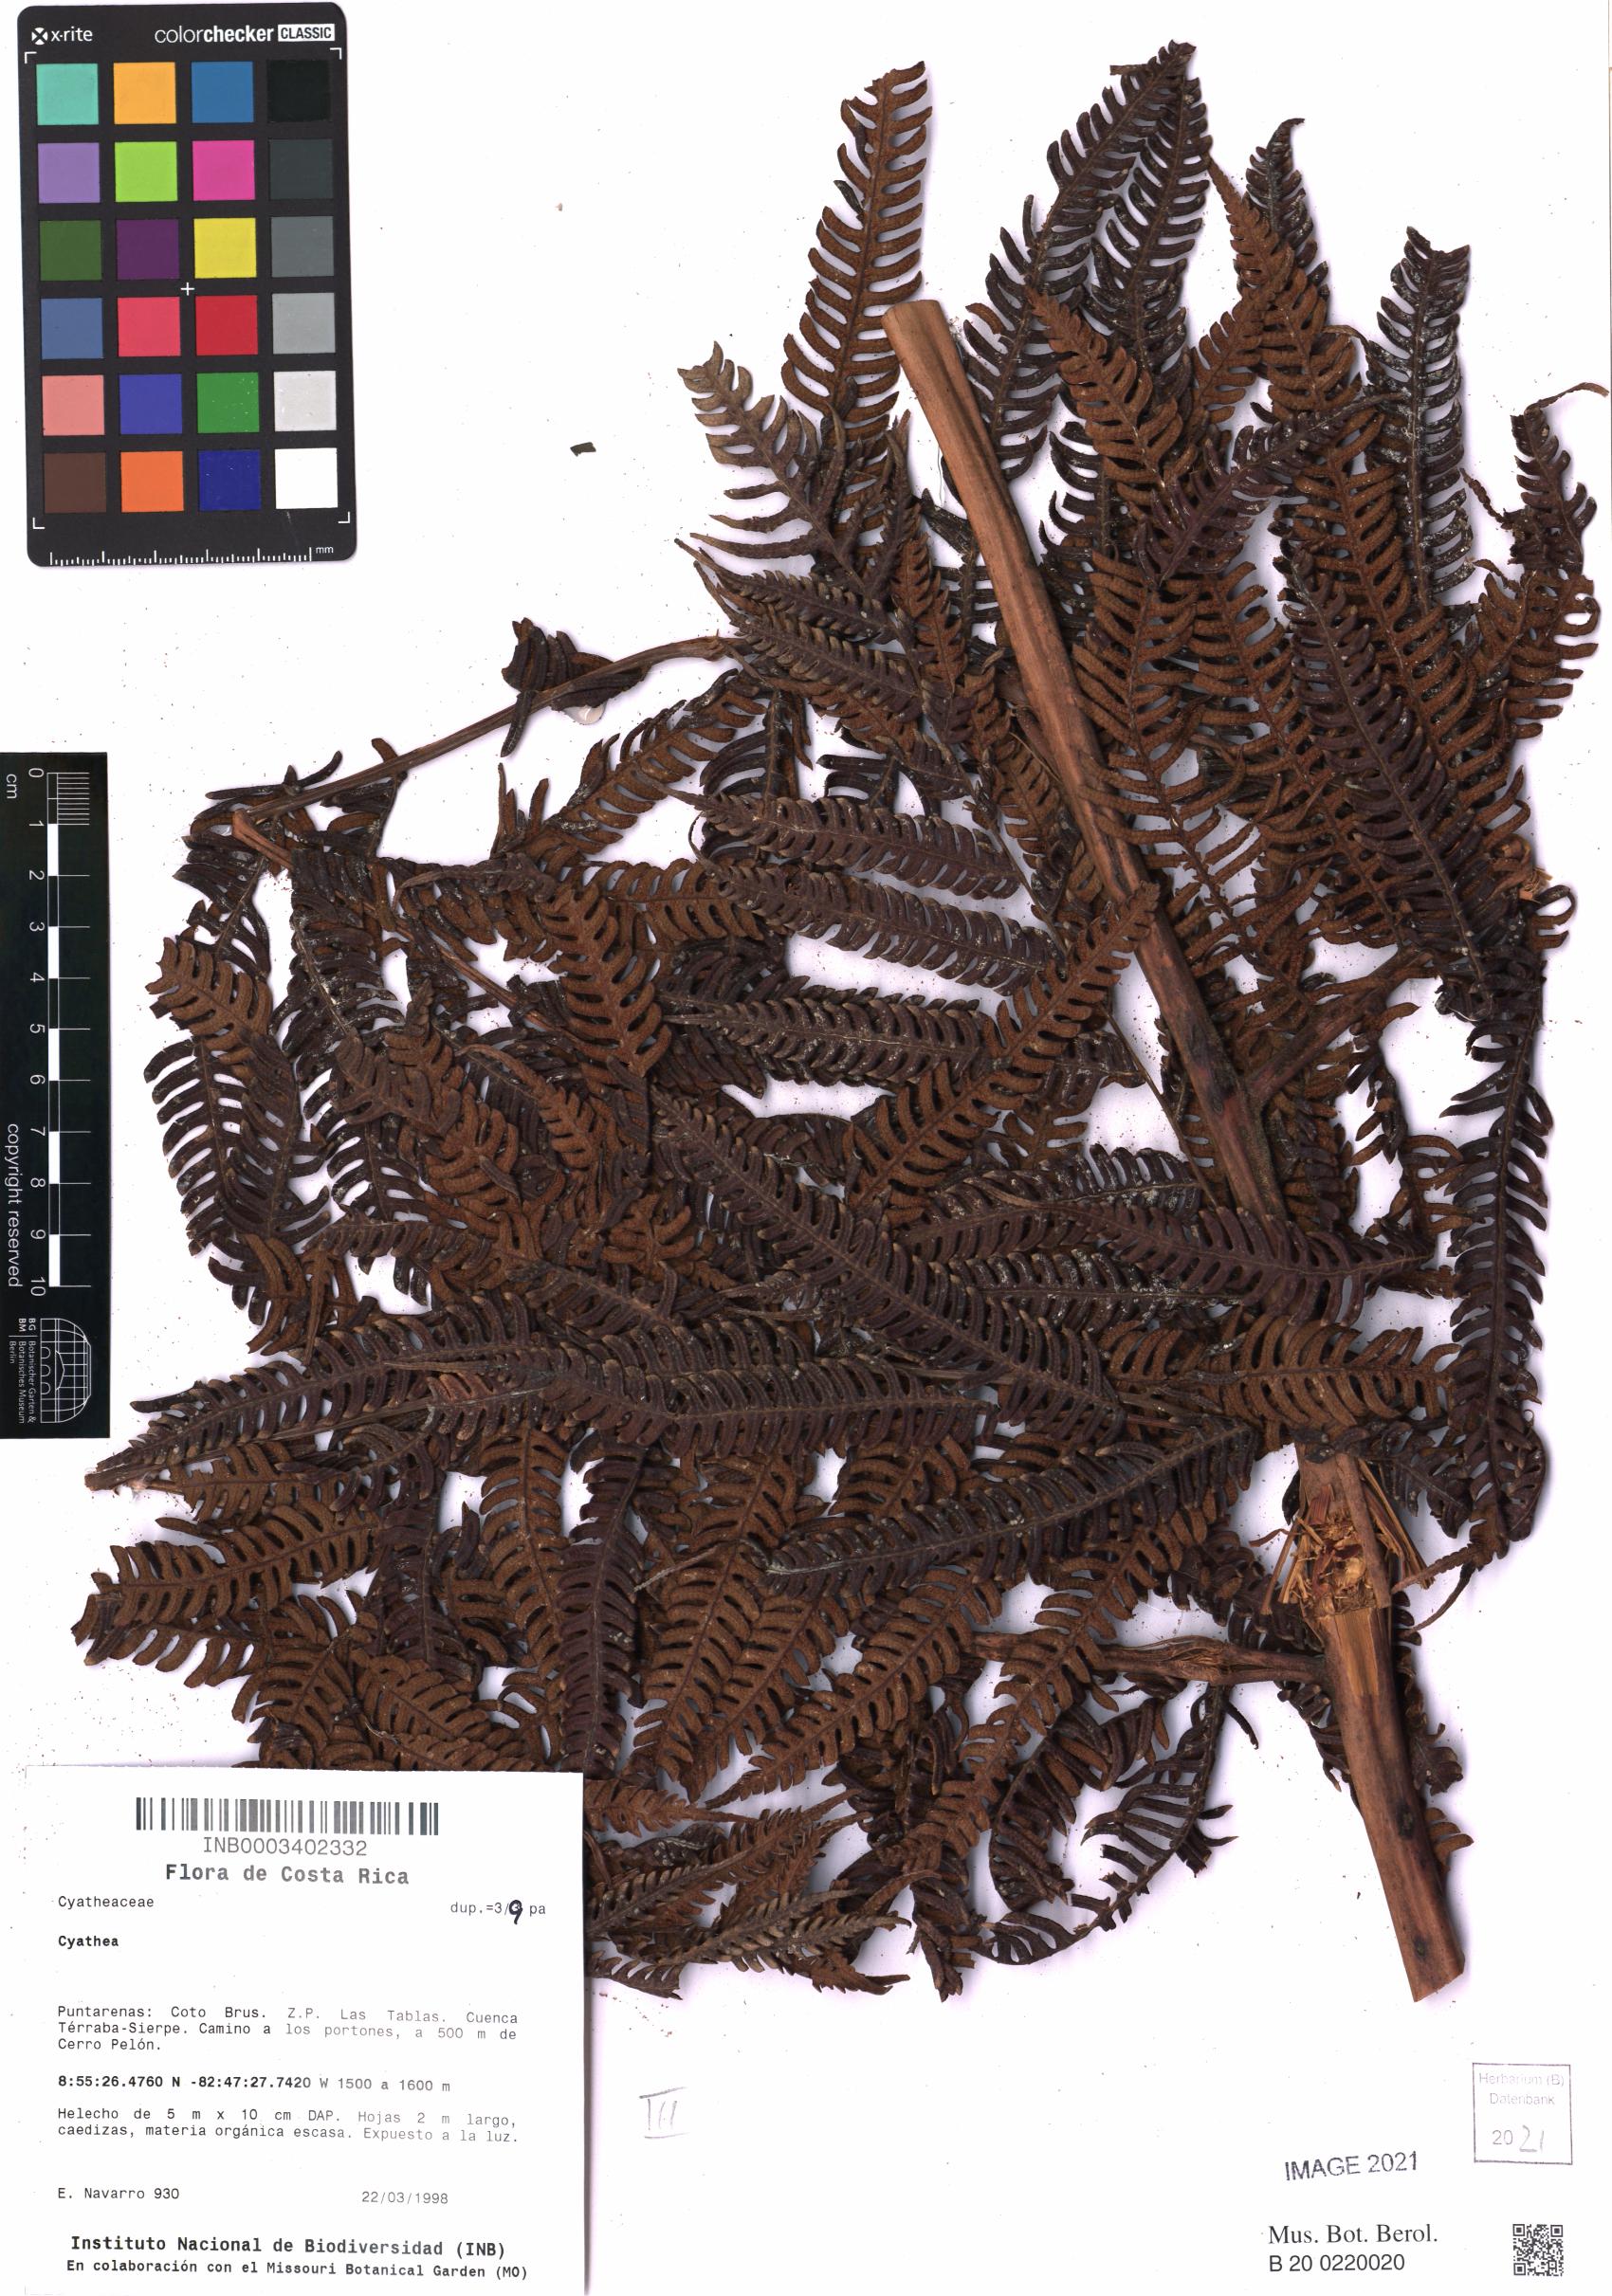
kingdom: Plantae
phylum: Tracheophyta
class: Polypodiopsida
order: Cyatheales
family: Cyatheaceae
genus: Cyathea
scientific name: Cyathea
